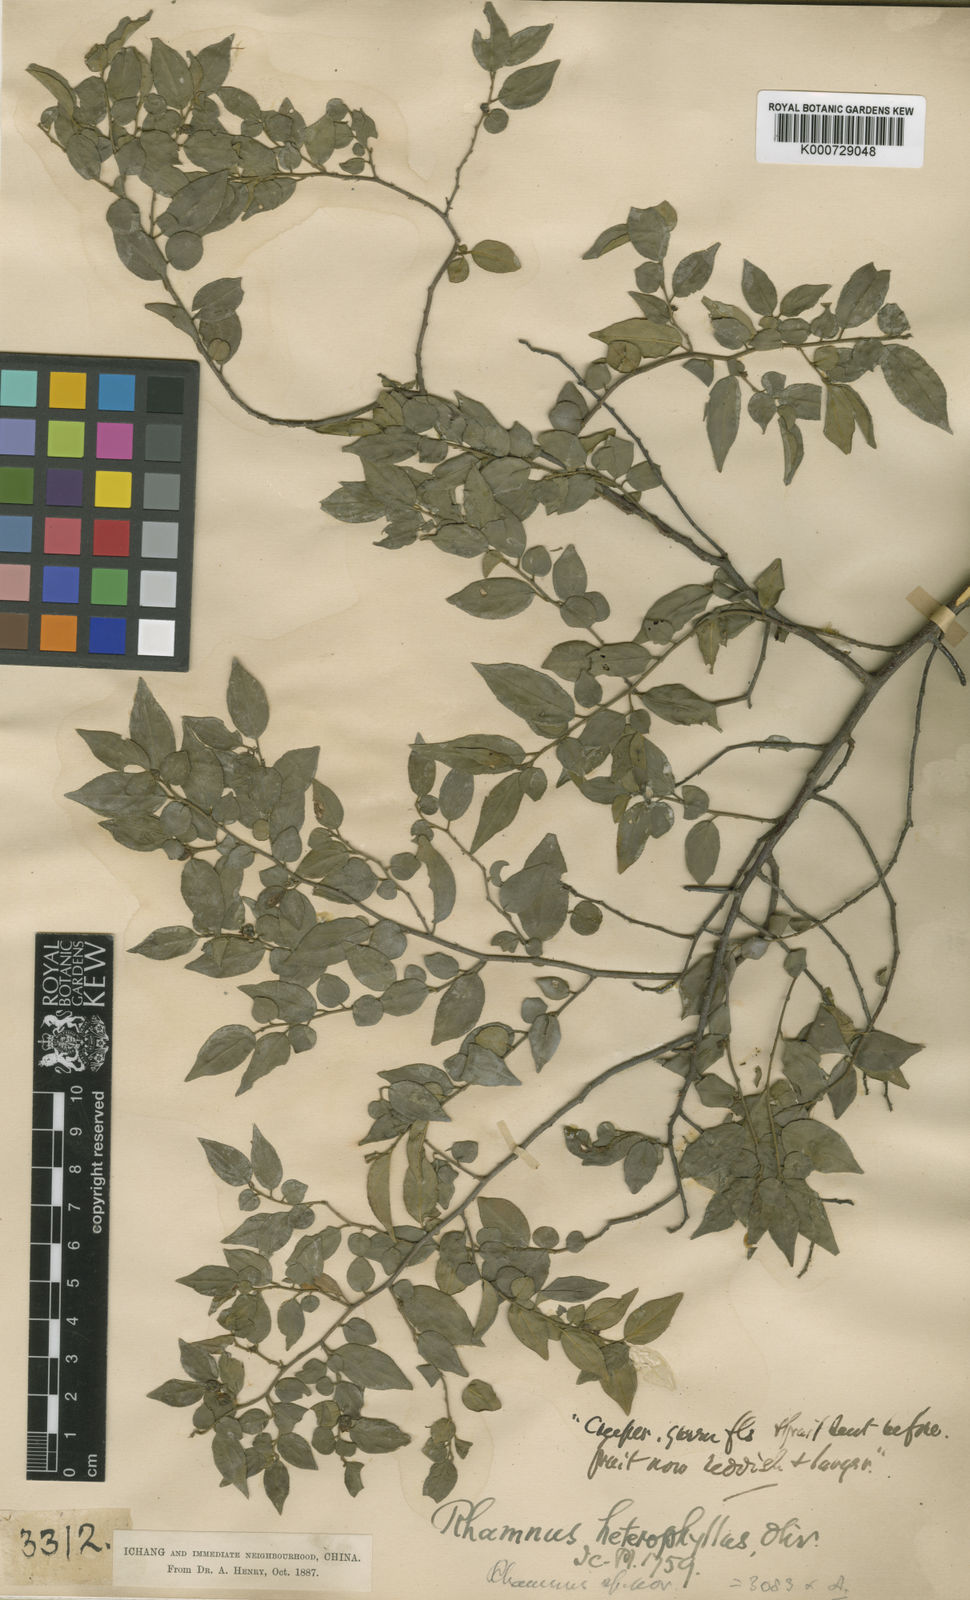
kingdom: Plantae
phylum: Tracheophyta
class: Magnoliopsida
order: Rosales
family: Rhamnaceae
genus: Rhamnus
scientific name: Rhamnus heterophylla
